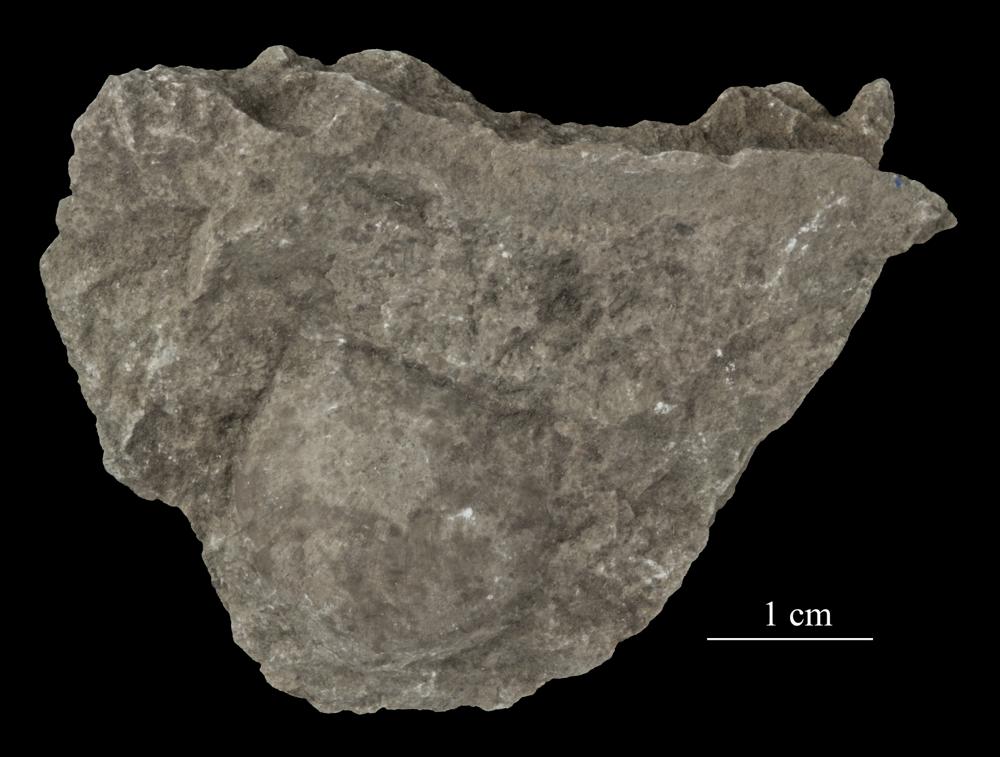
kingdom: Animalia
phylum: Brachiopoda
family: Strophomenidae
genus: Tallinnites
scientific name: Tallinnites Oepikina imbrexoidea
